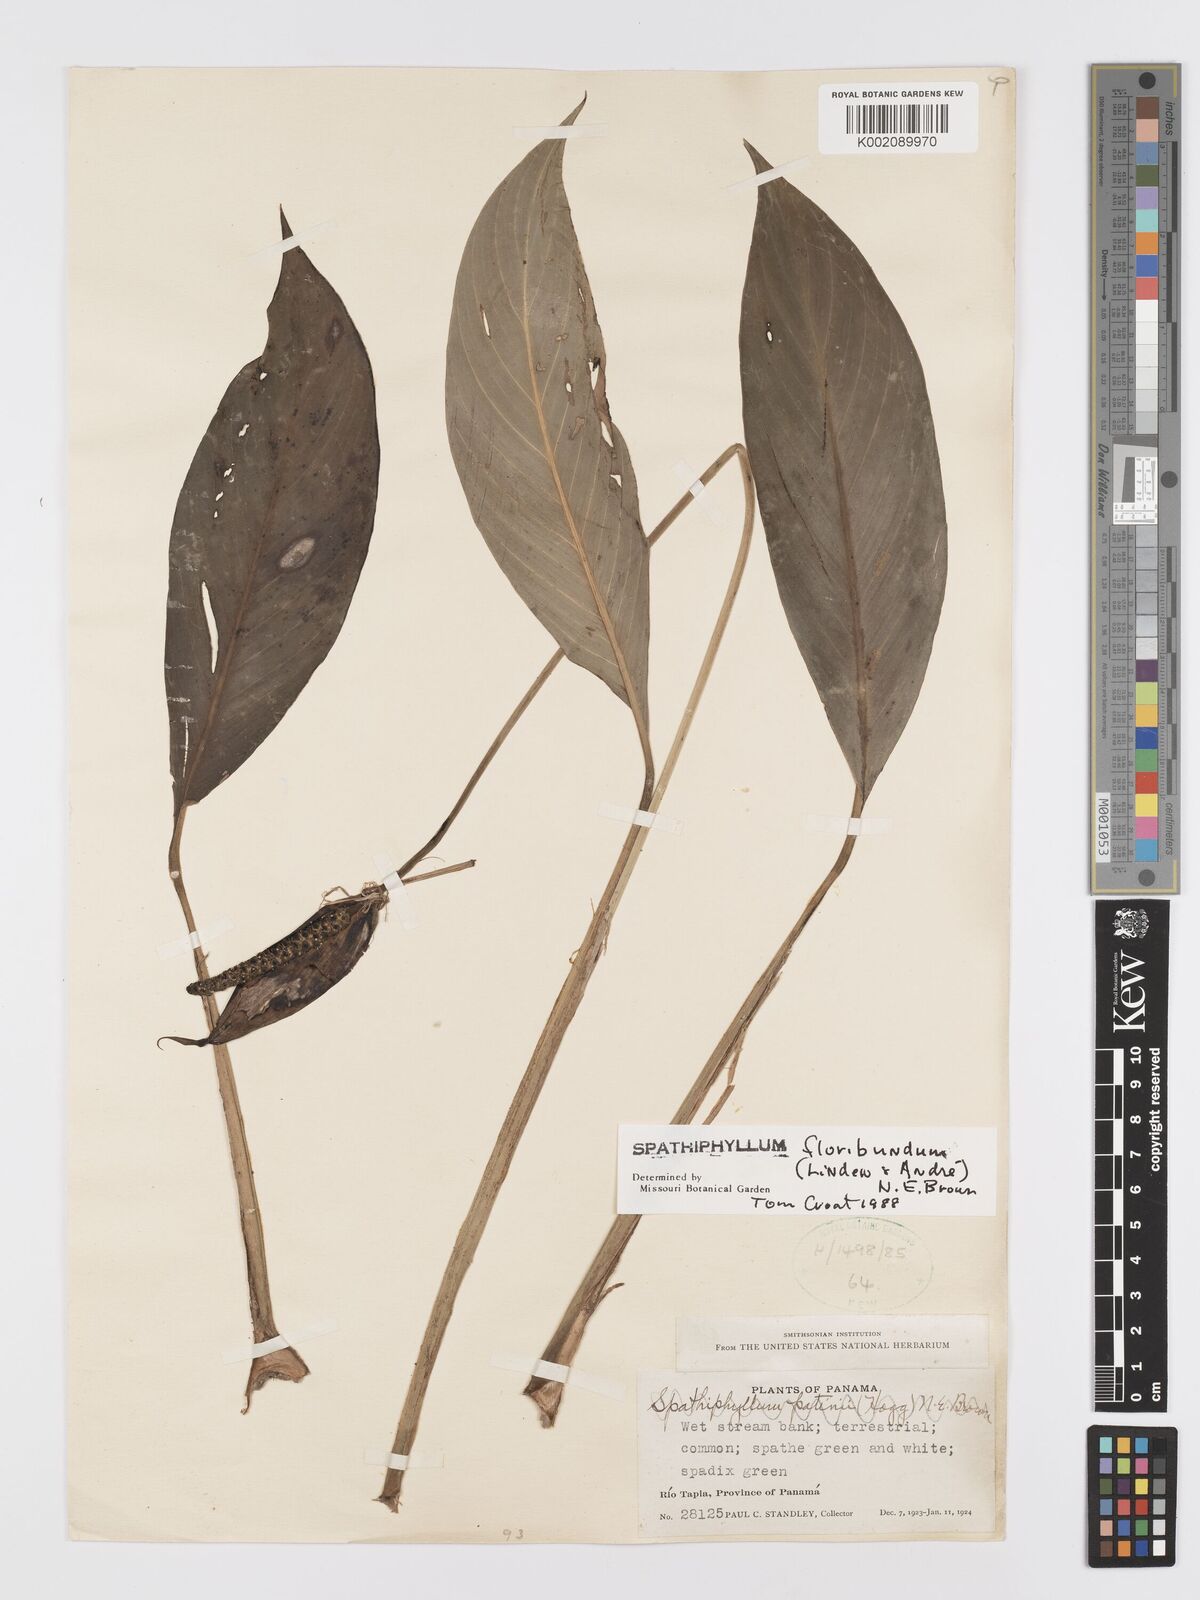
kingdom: Plantae
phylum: Tracheophyta
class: Liliopsida
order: Alismatales
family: Araceae
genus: Spathiphyllum
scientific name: Spathiphyllum floribundum
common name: Peace-lily
